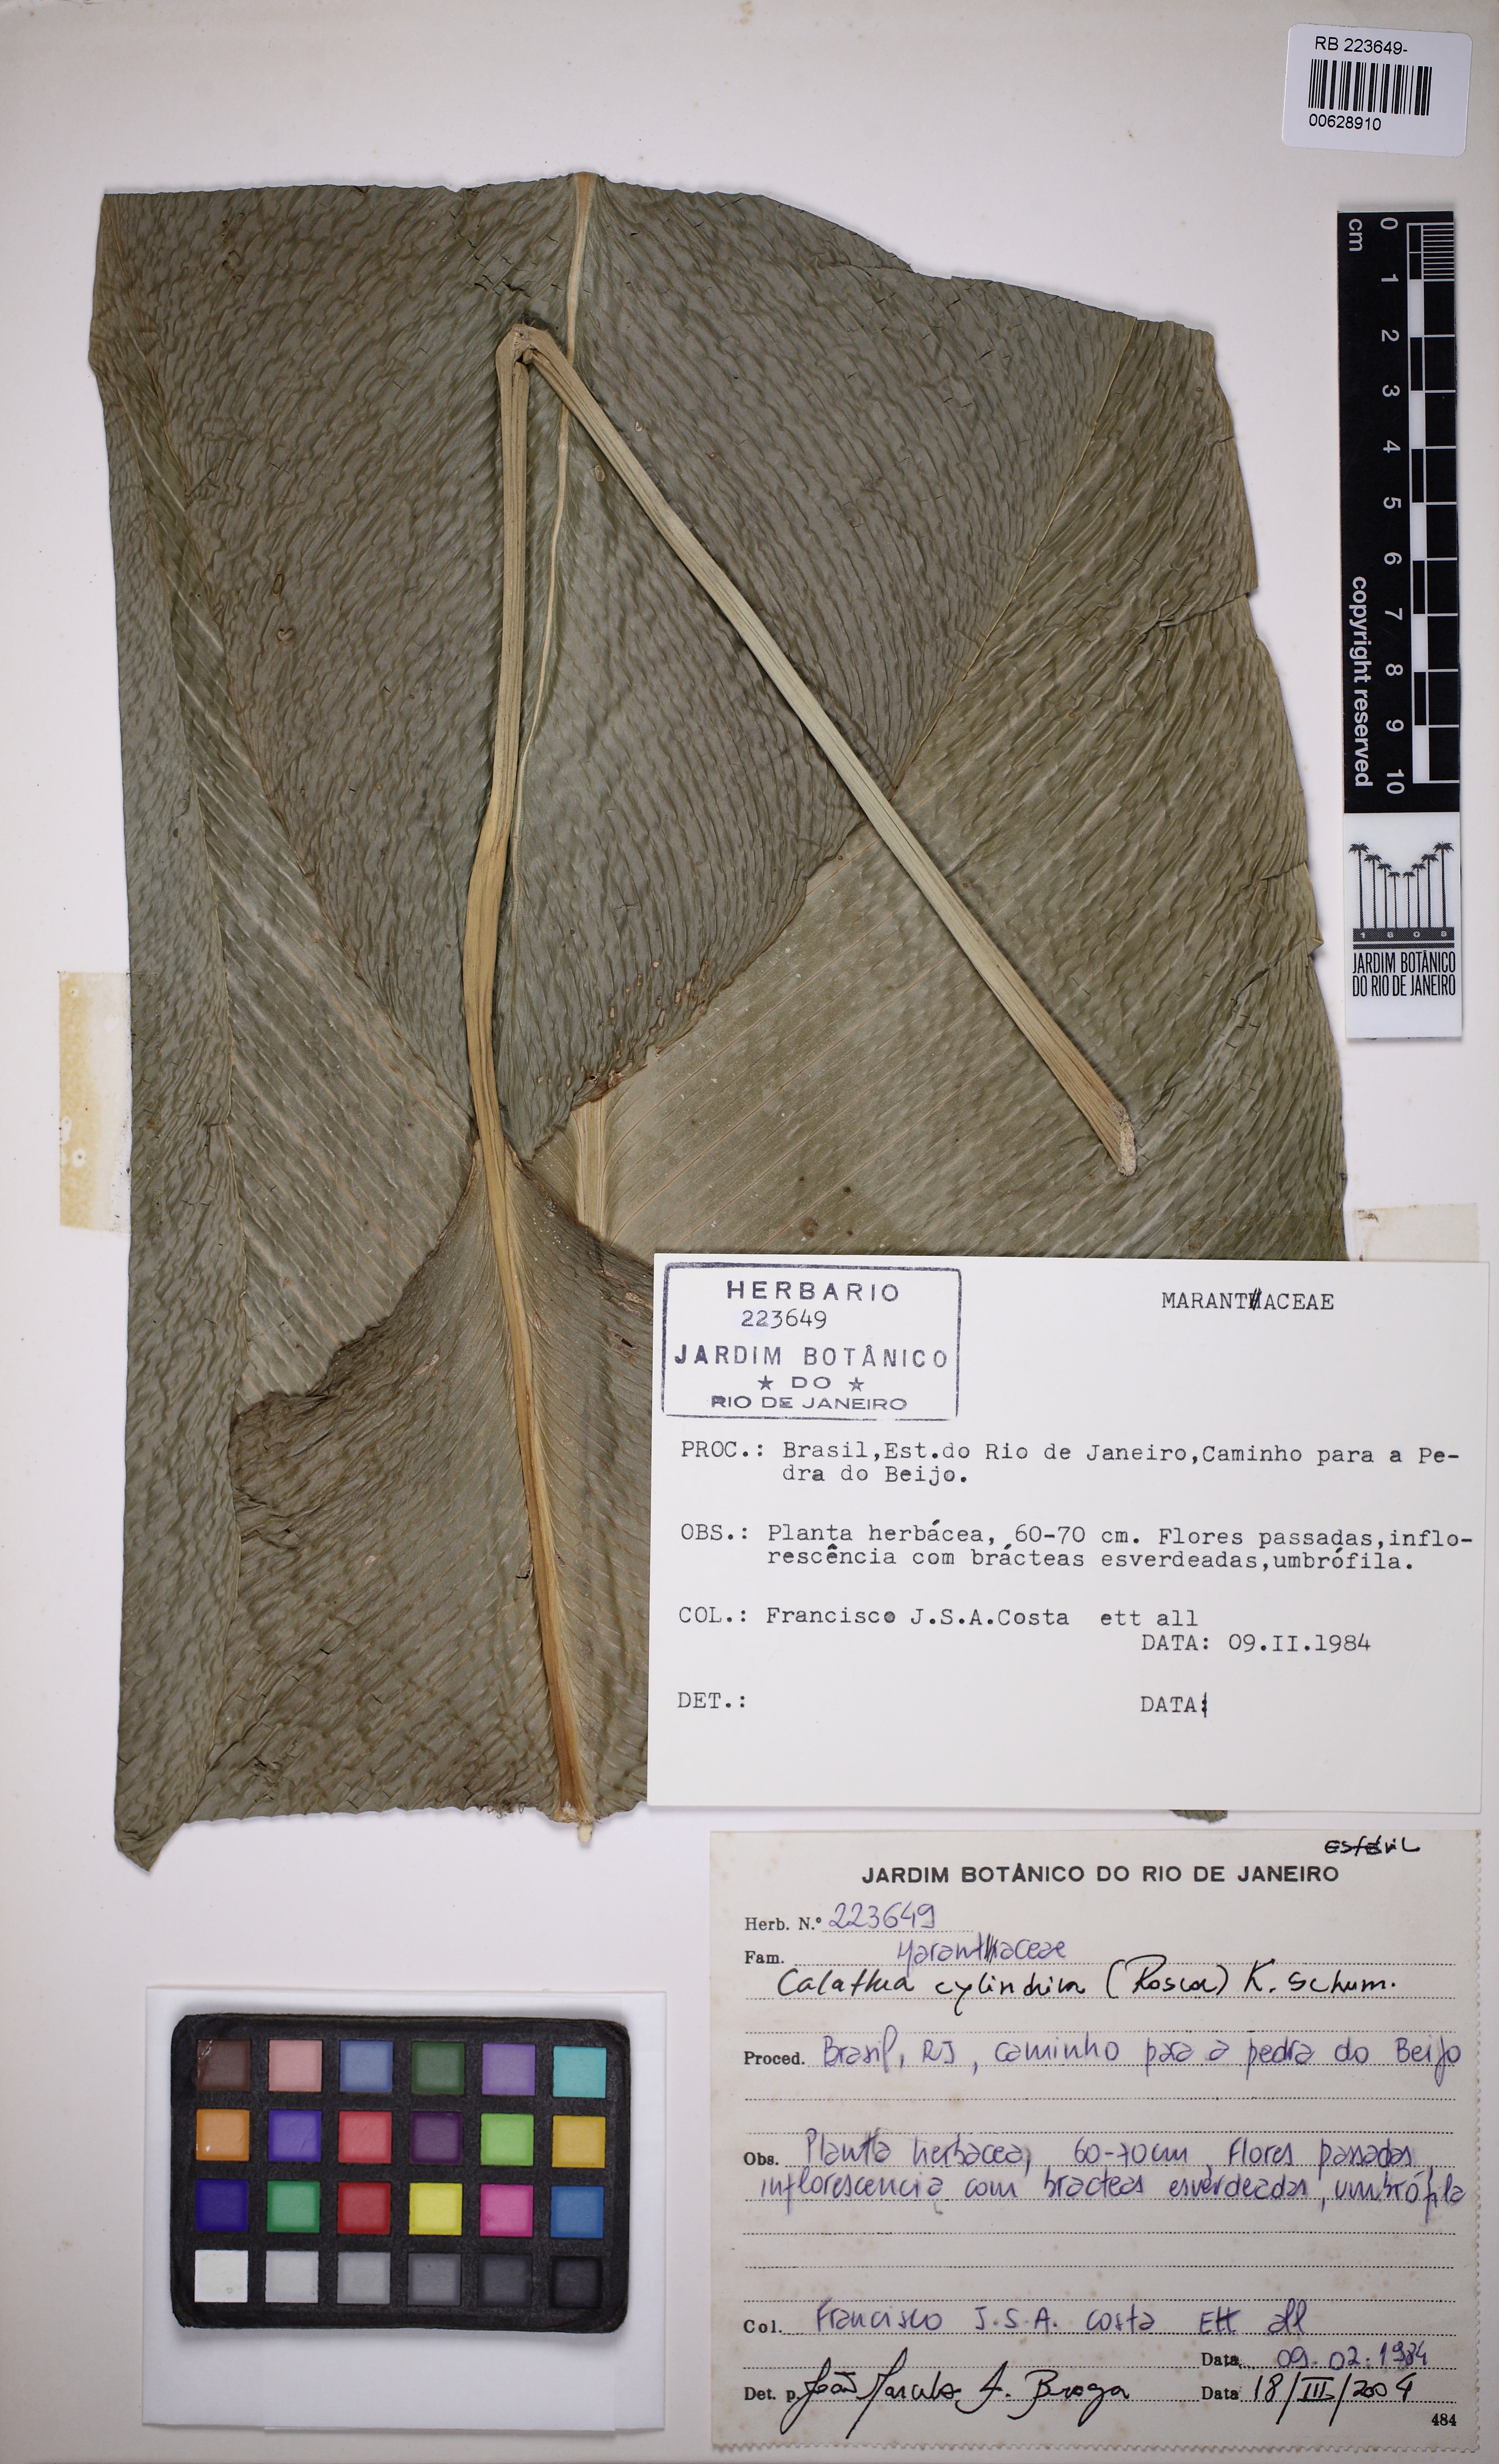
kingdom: Plantae
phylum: Tracheophyta
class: Liliopsida
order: Zingiberales
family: Marantaceae
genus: Goeppertia
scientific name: Goeppertia cylindrica
